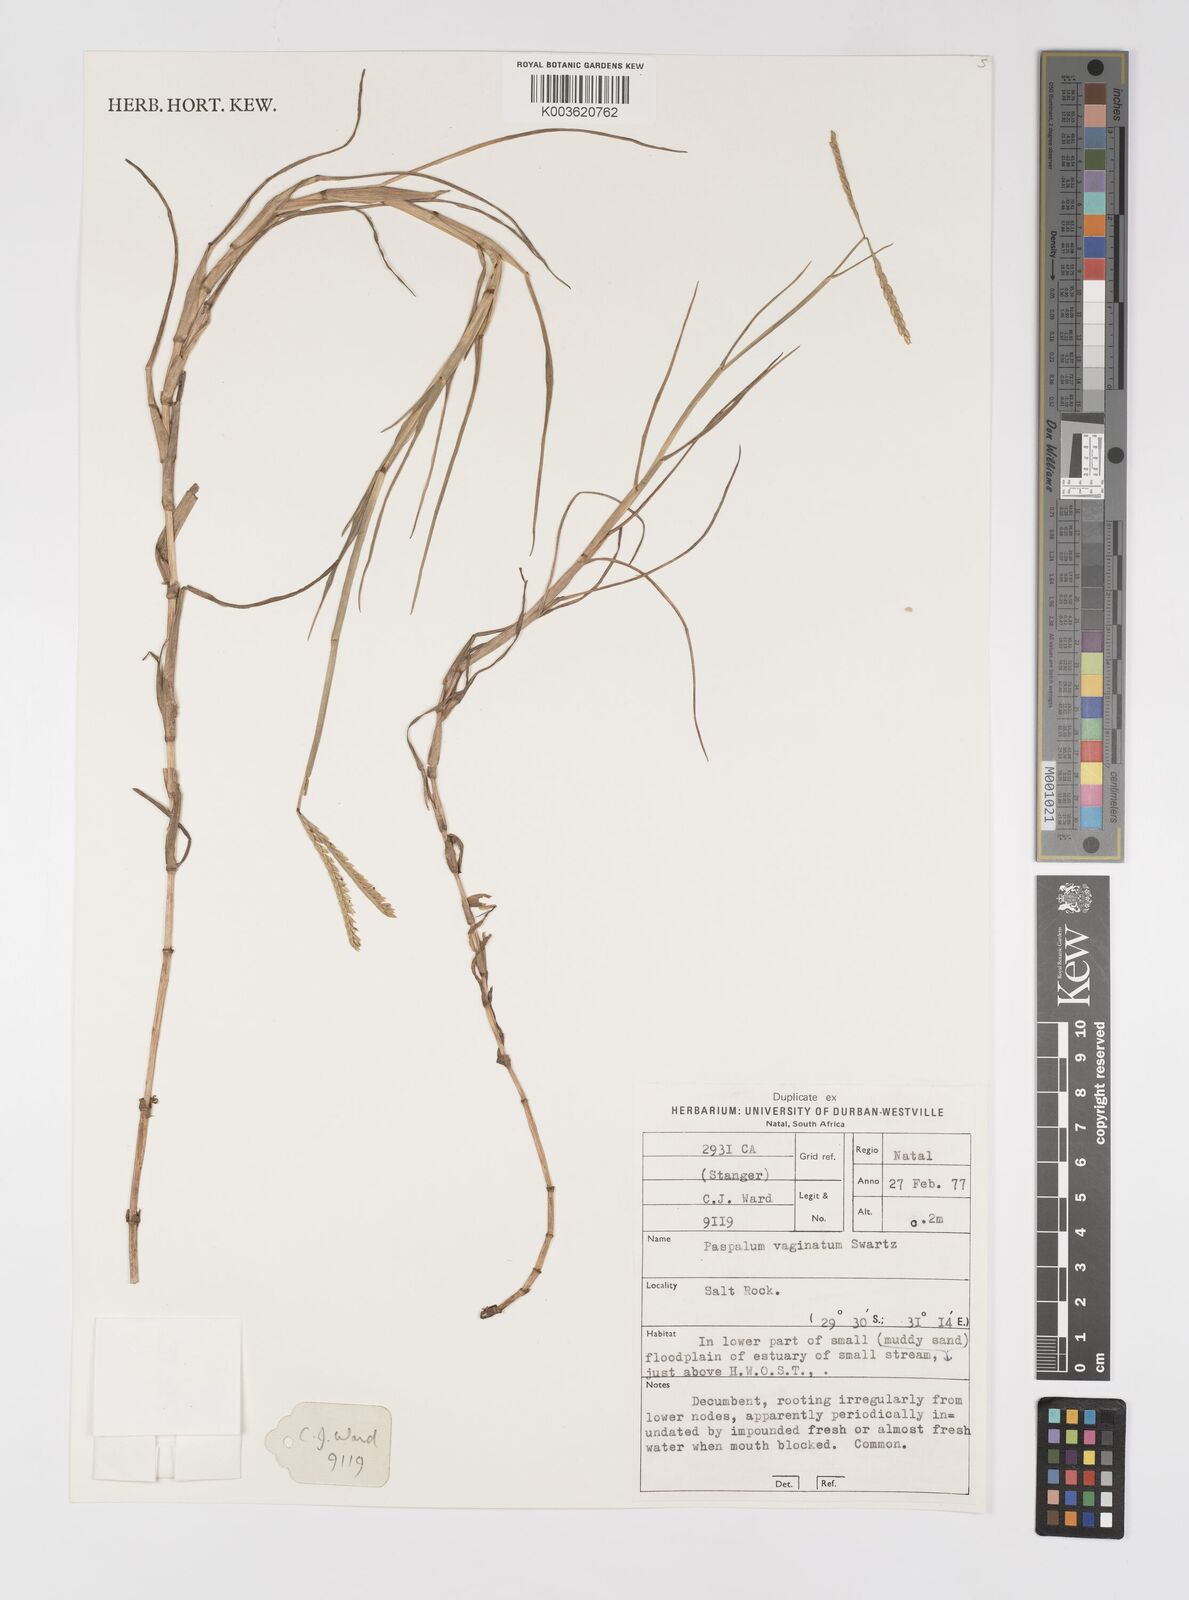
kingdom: Plantae
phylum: Tracheophyta
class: Liliopsida
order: Poales
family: Poaceae
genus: Paspalum
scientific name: Paspalum vaginatum
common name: Seashore paspalum
